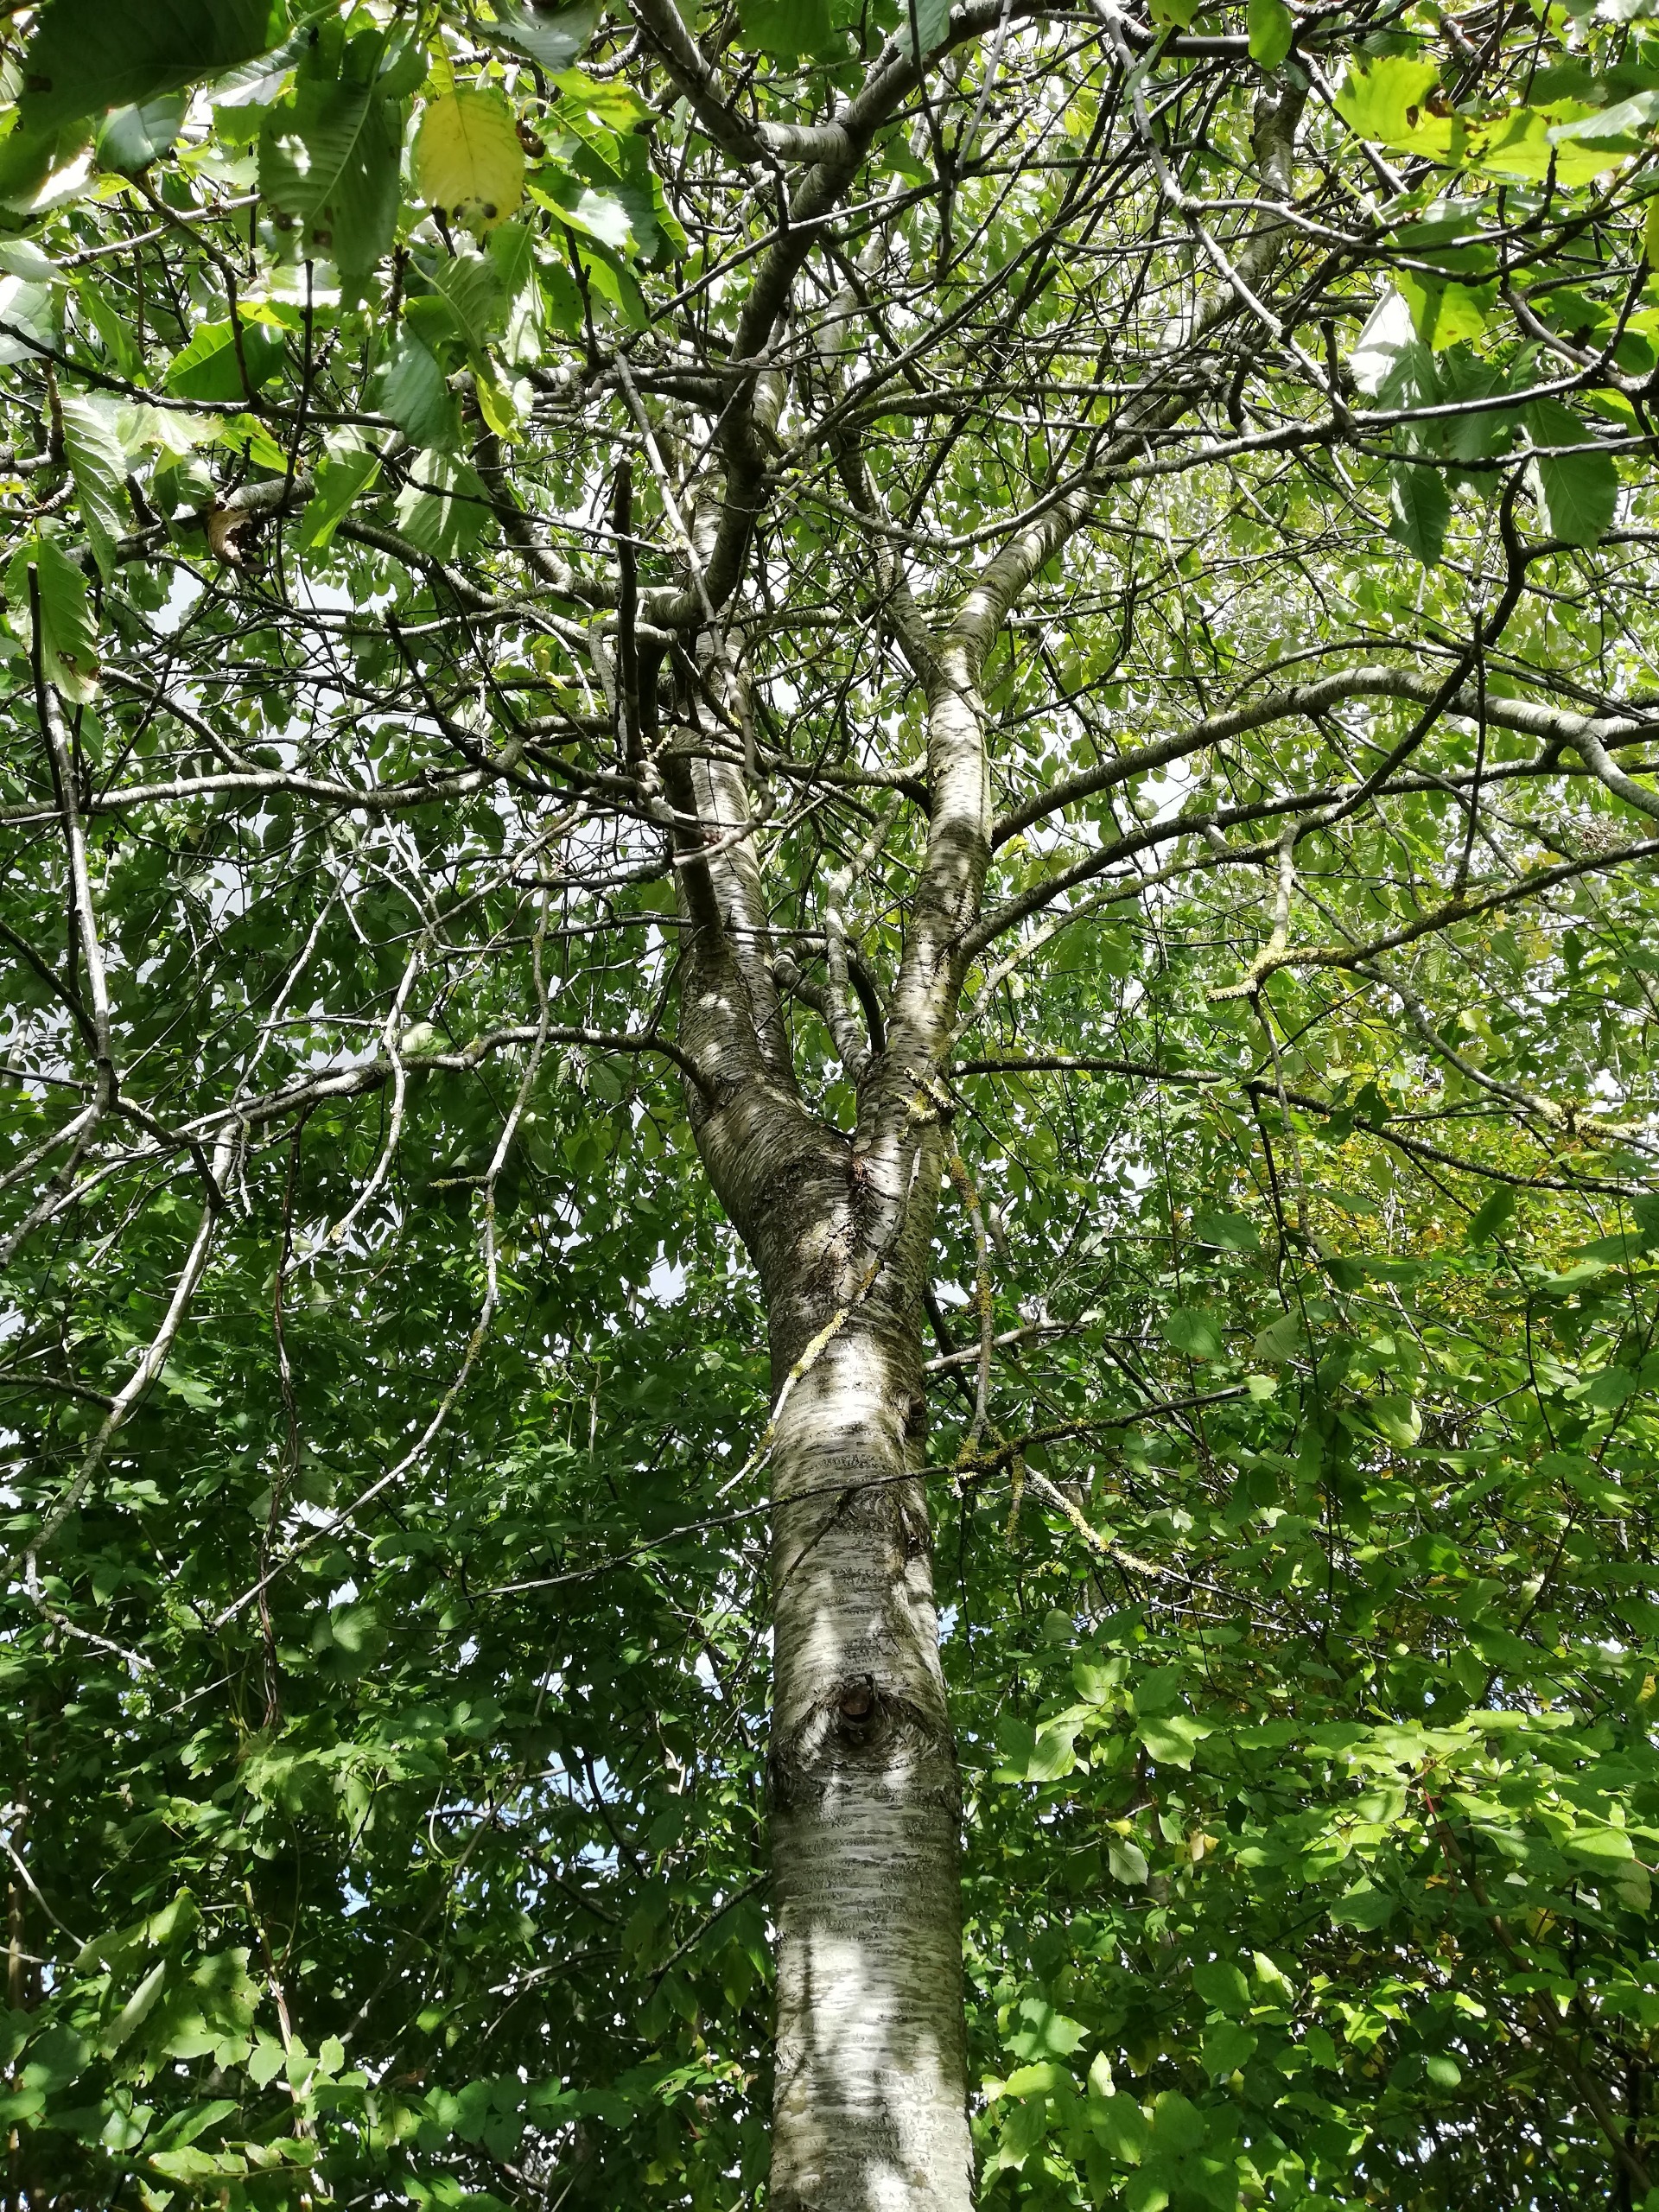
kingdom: Plantae
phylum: Tracheophyta
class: Magnoliopsida
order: Rosales
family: Rosaceae
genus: Prunus
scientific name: Prunus avium
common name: Fugle-kirsebær
